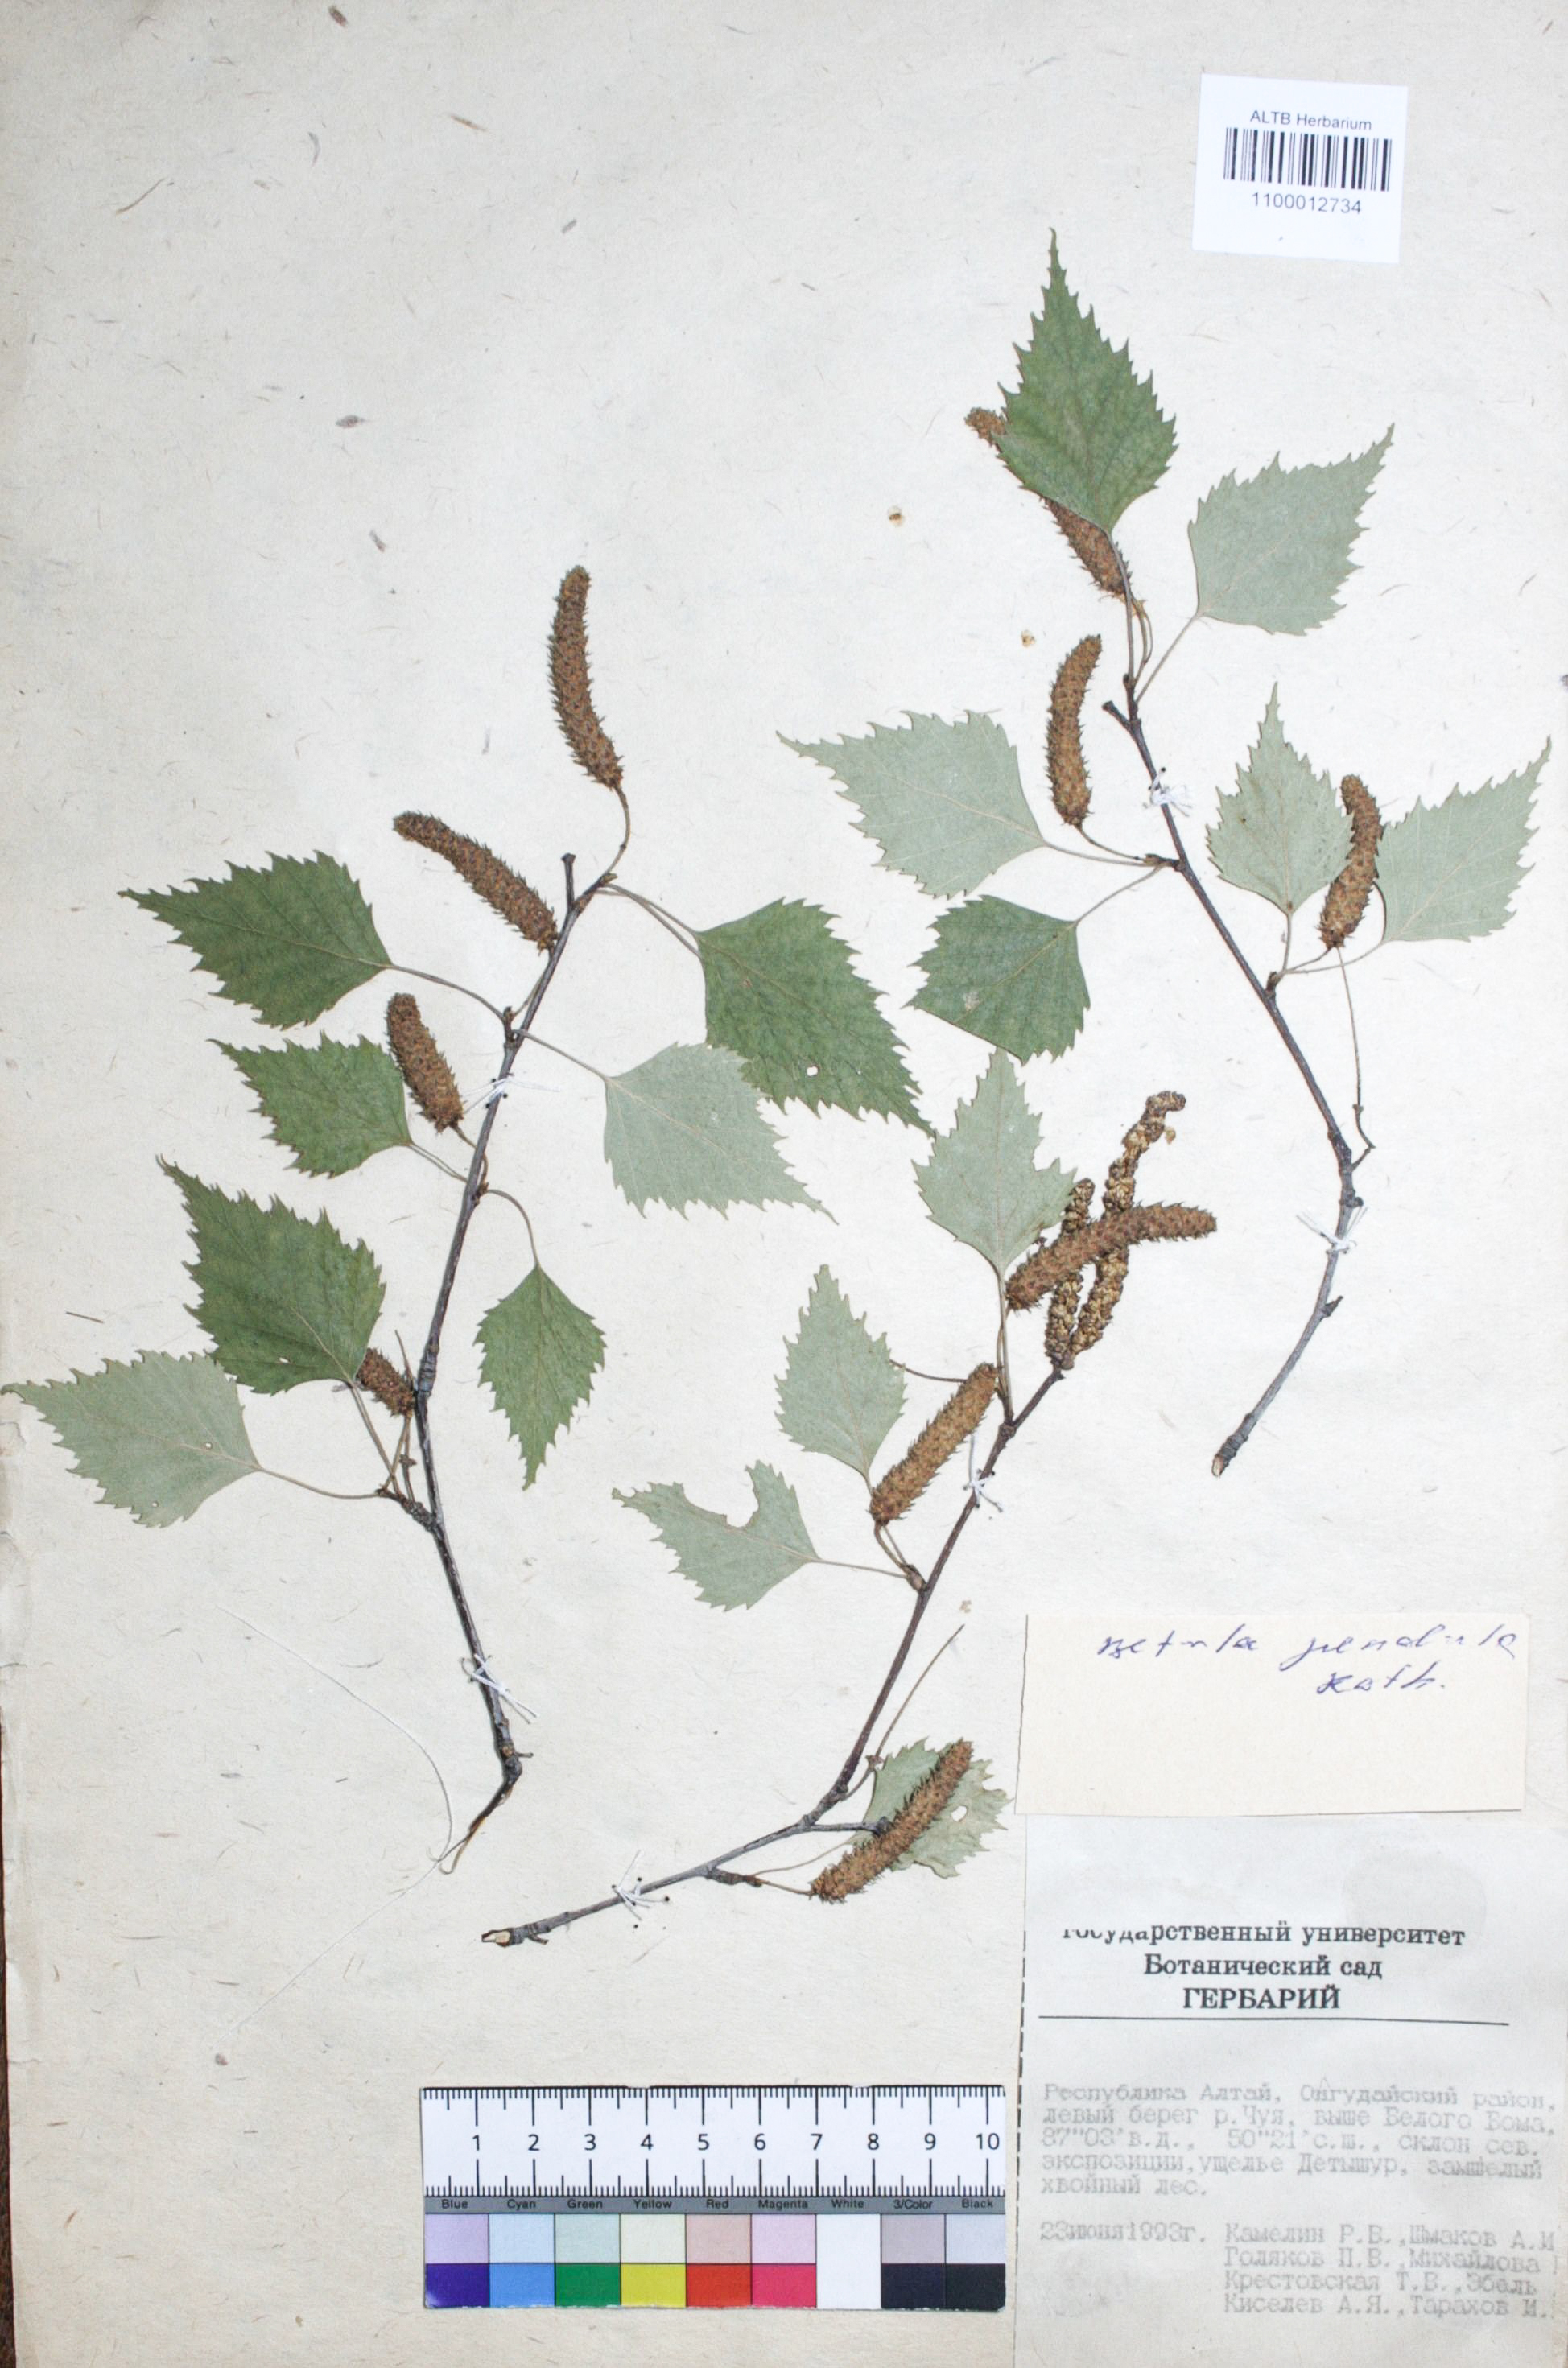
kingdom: Plantae
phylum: Tracheophyta
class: Magnoliopsida
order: Fagales
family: Betulaceae
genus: Betula
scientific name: Betula pendula
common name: Silver birch
